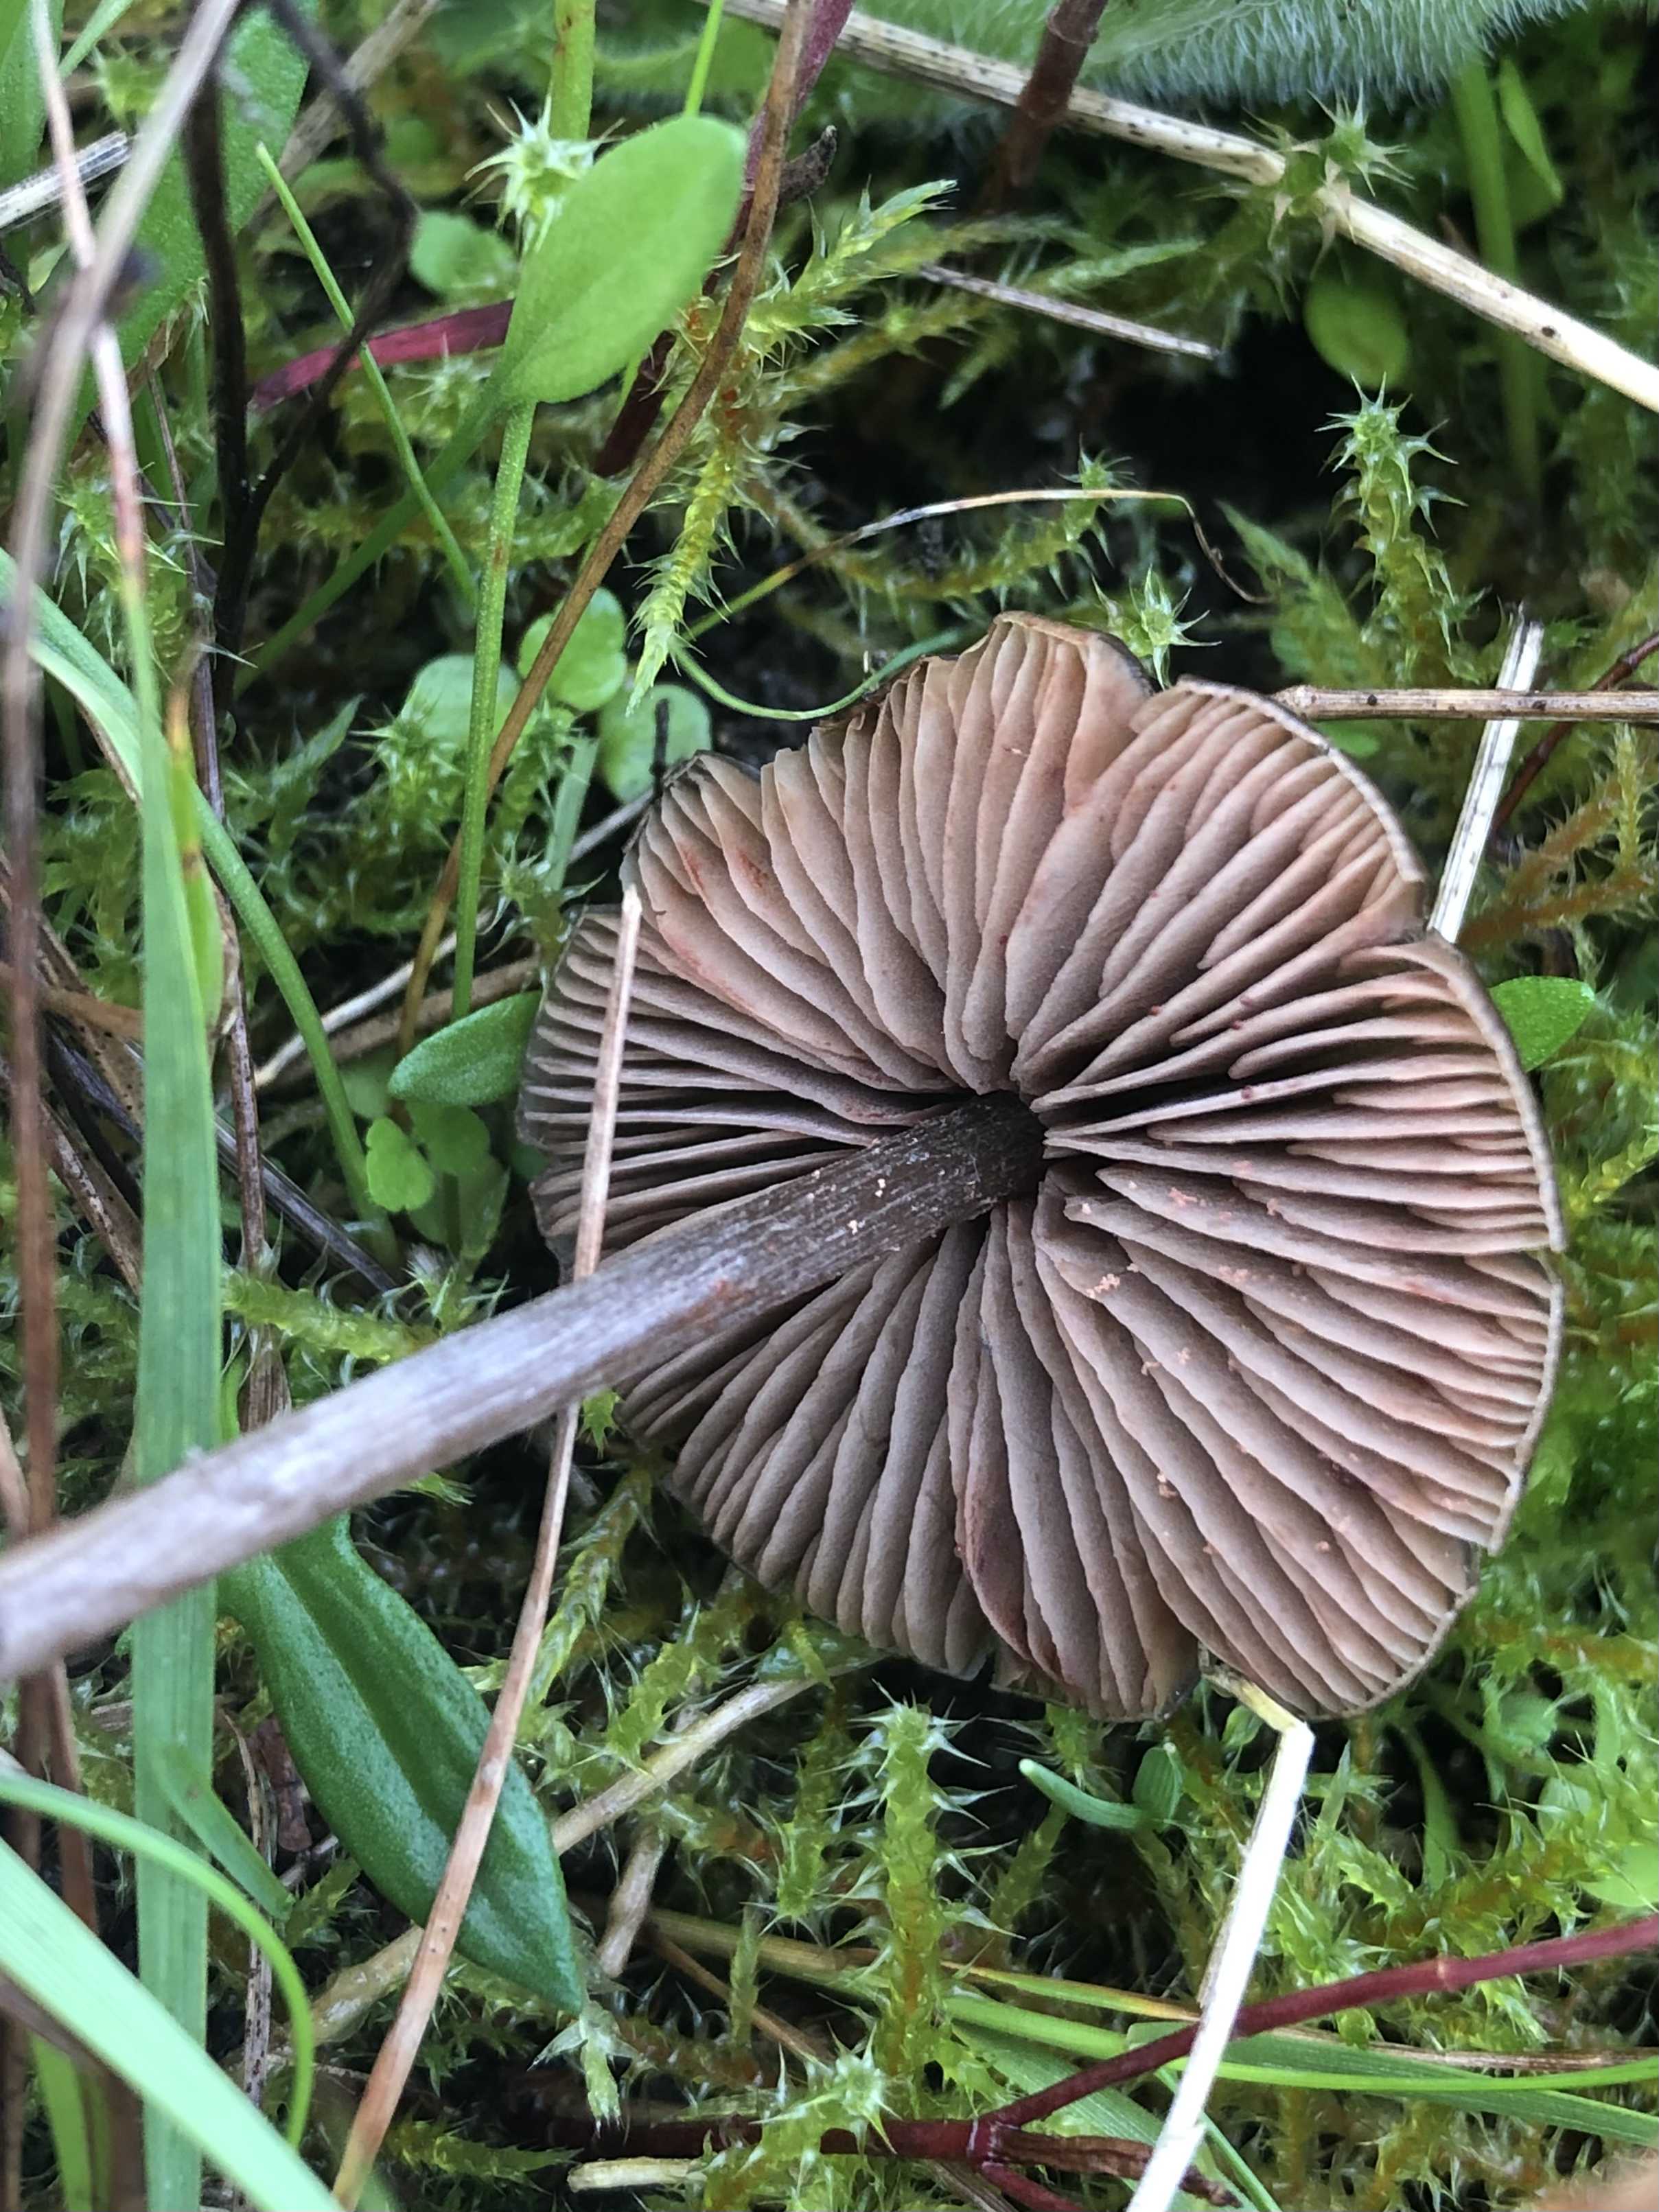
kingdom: Fungi
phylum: Basidiomycota
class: Agaricomycetes
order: Agaricales
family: Entolomataceae
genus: Entoloma
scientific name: Entoloma
